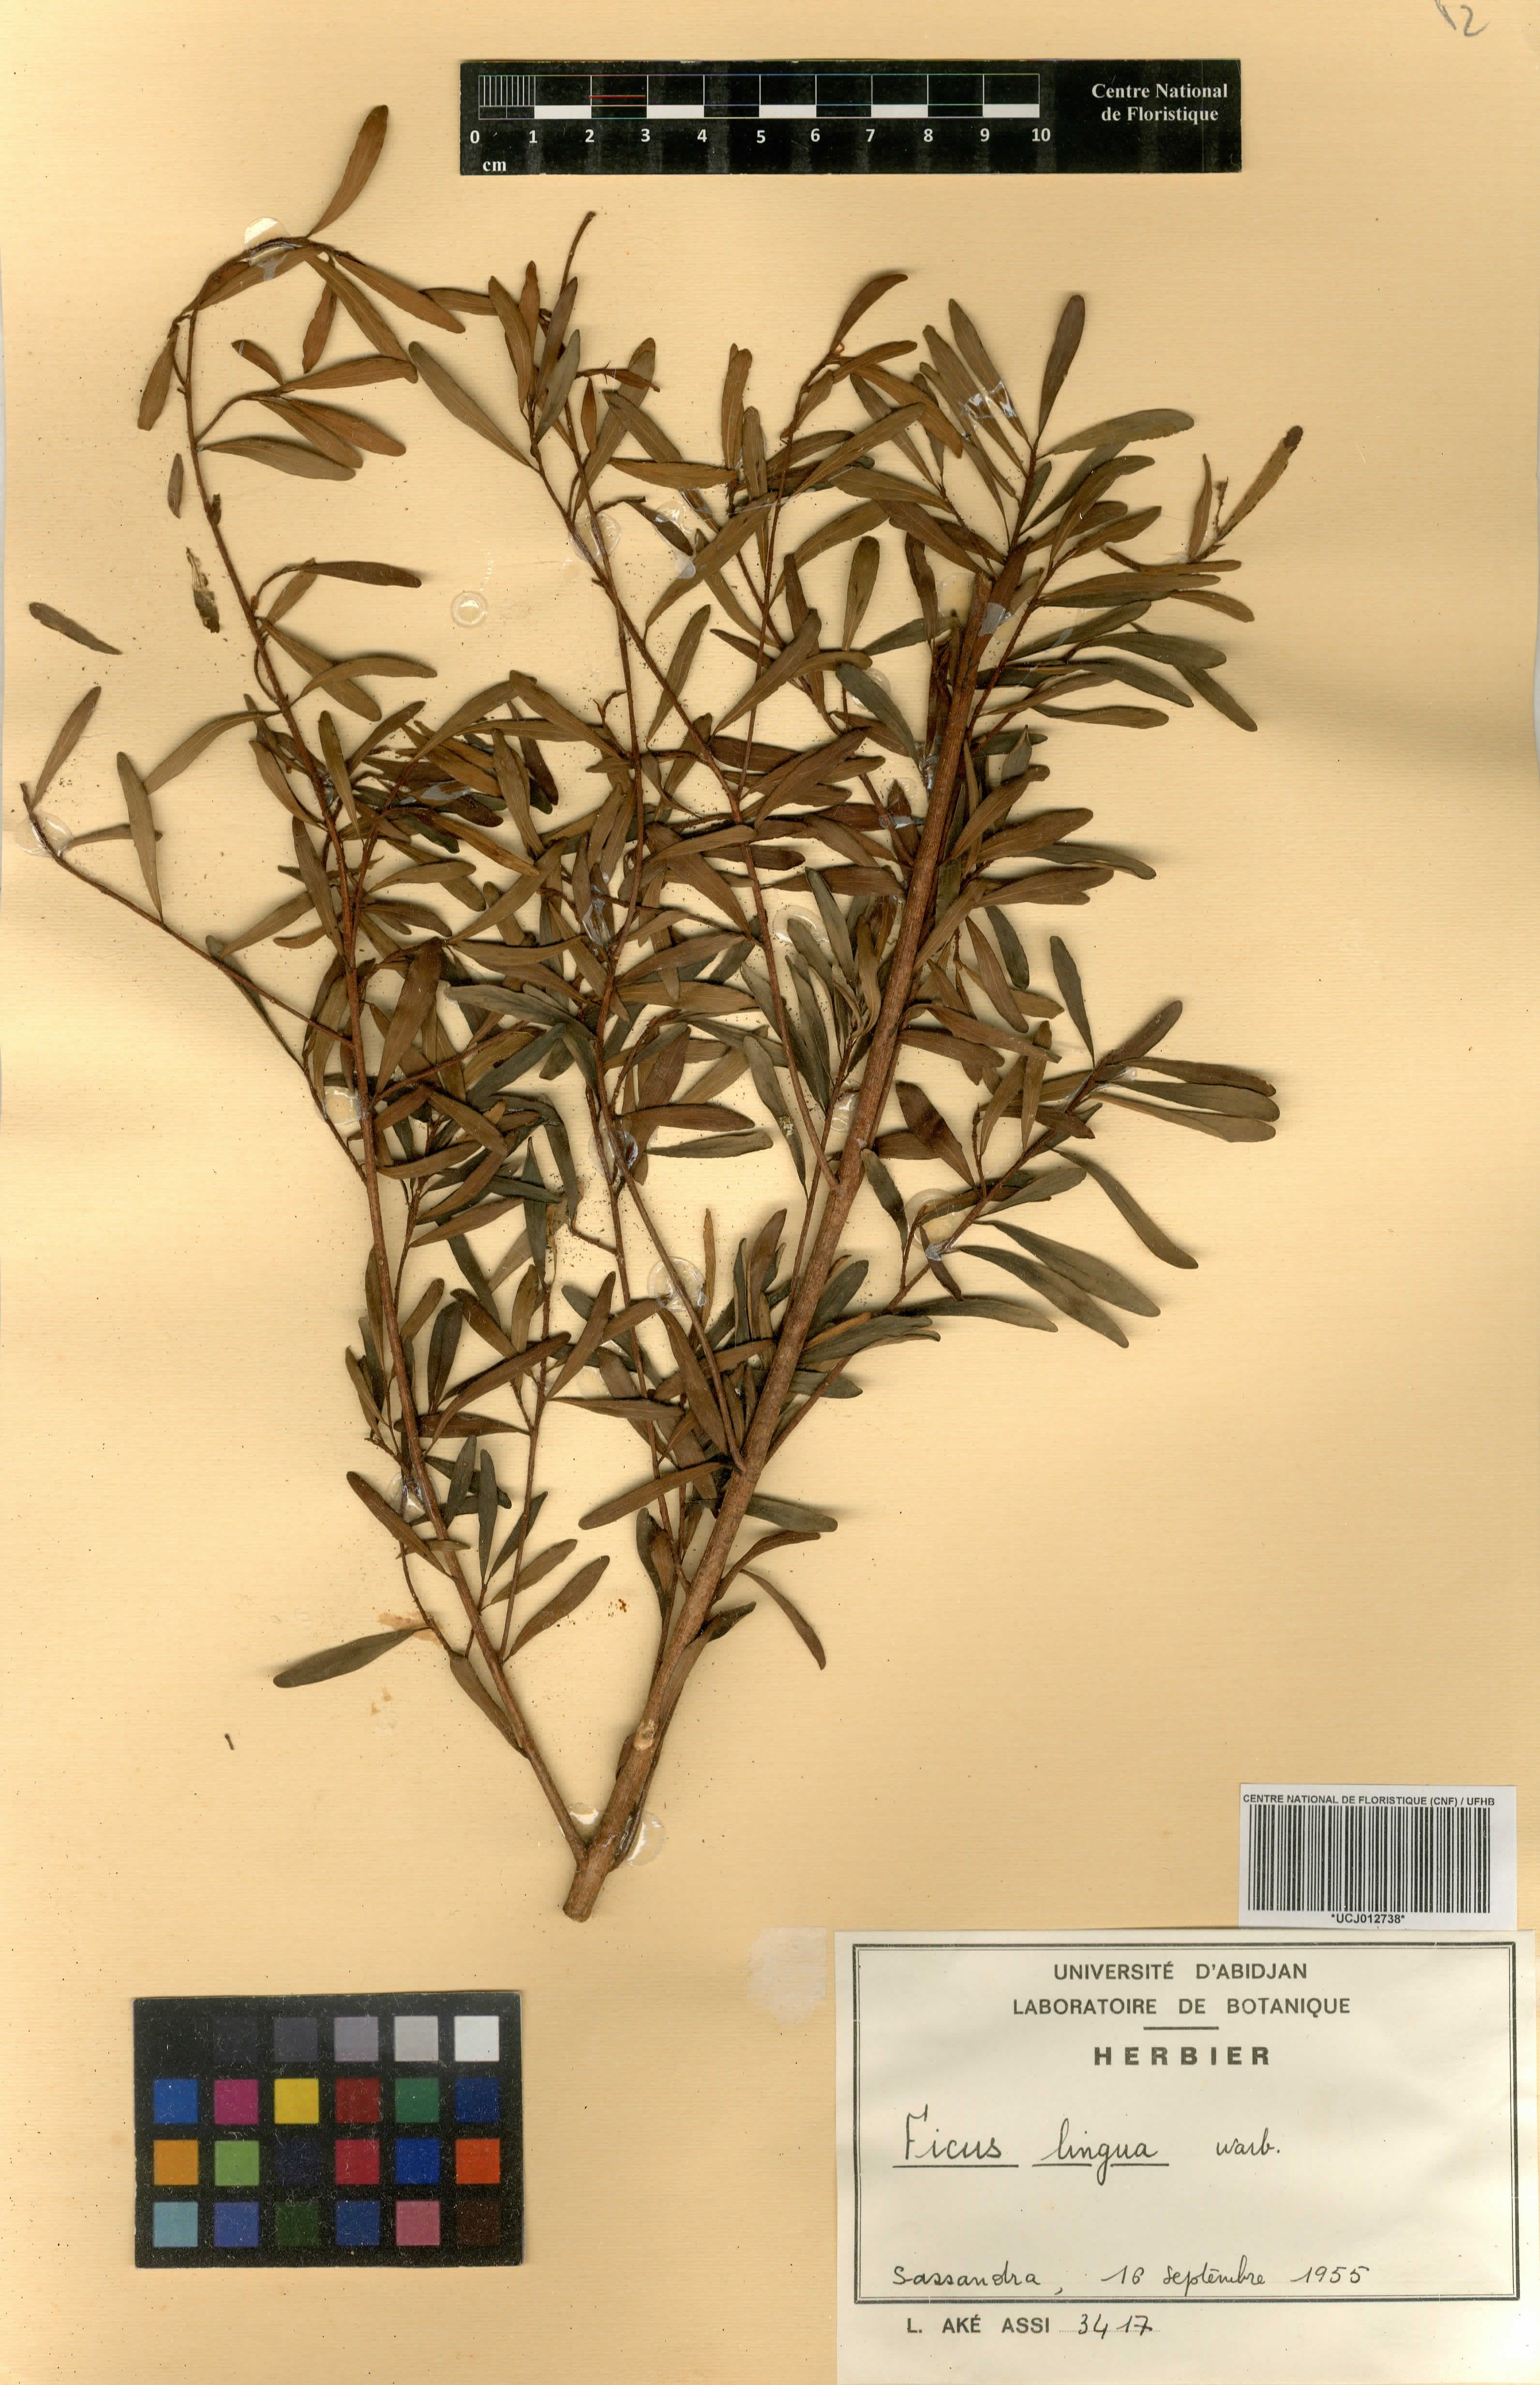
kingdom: Plantae
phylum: Tracheophyta
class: Magnoliopsida
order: Rosales
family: Moraceae
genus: Ficus
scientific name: Ficus lingua
